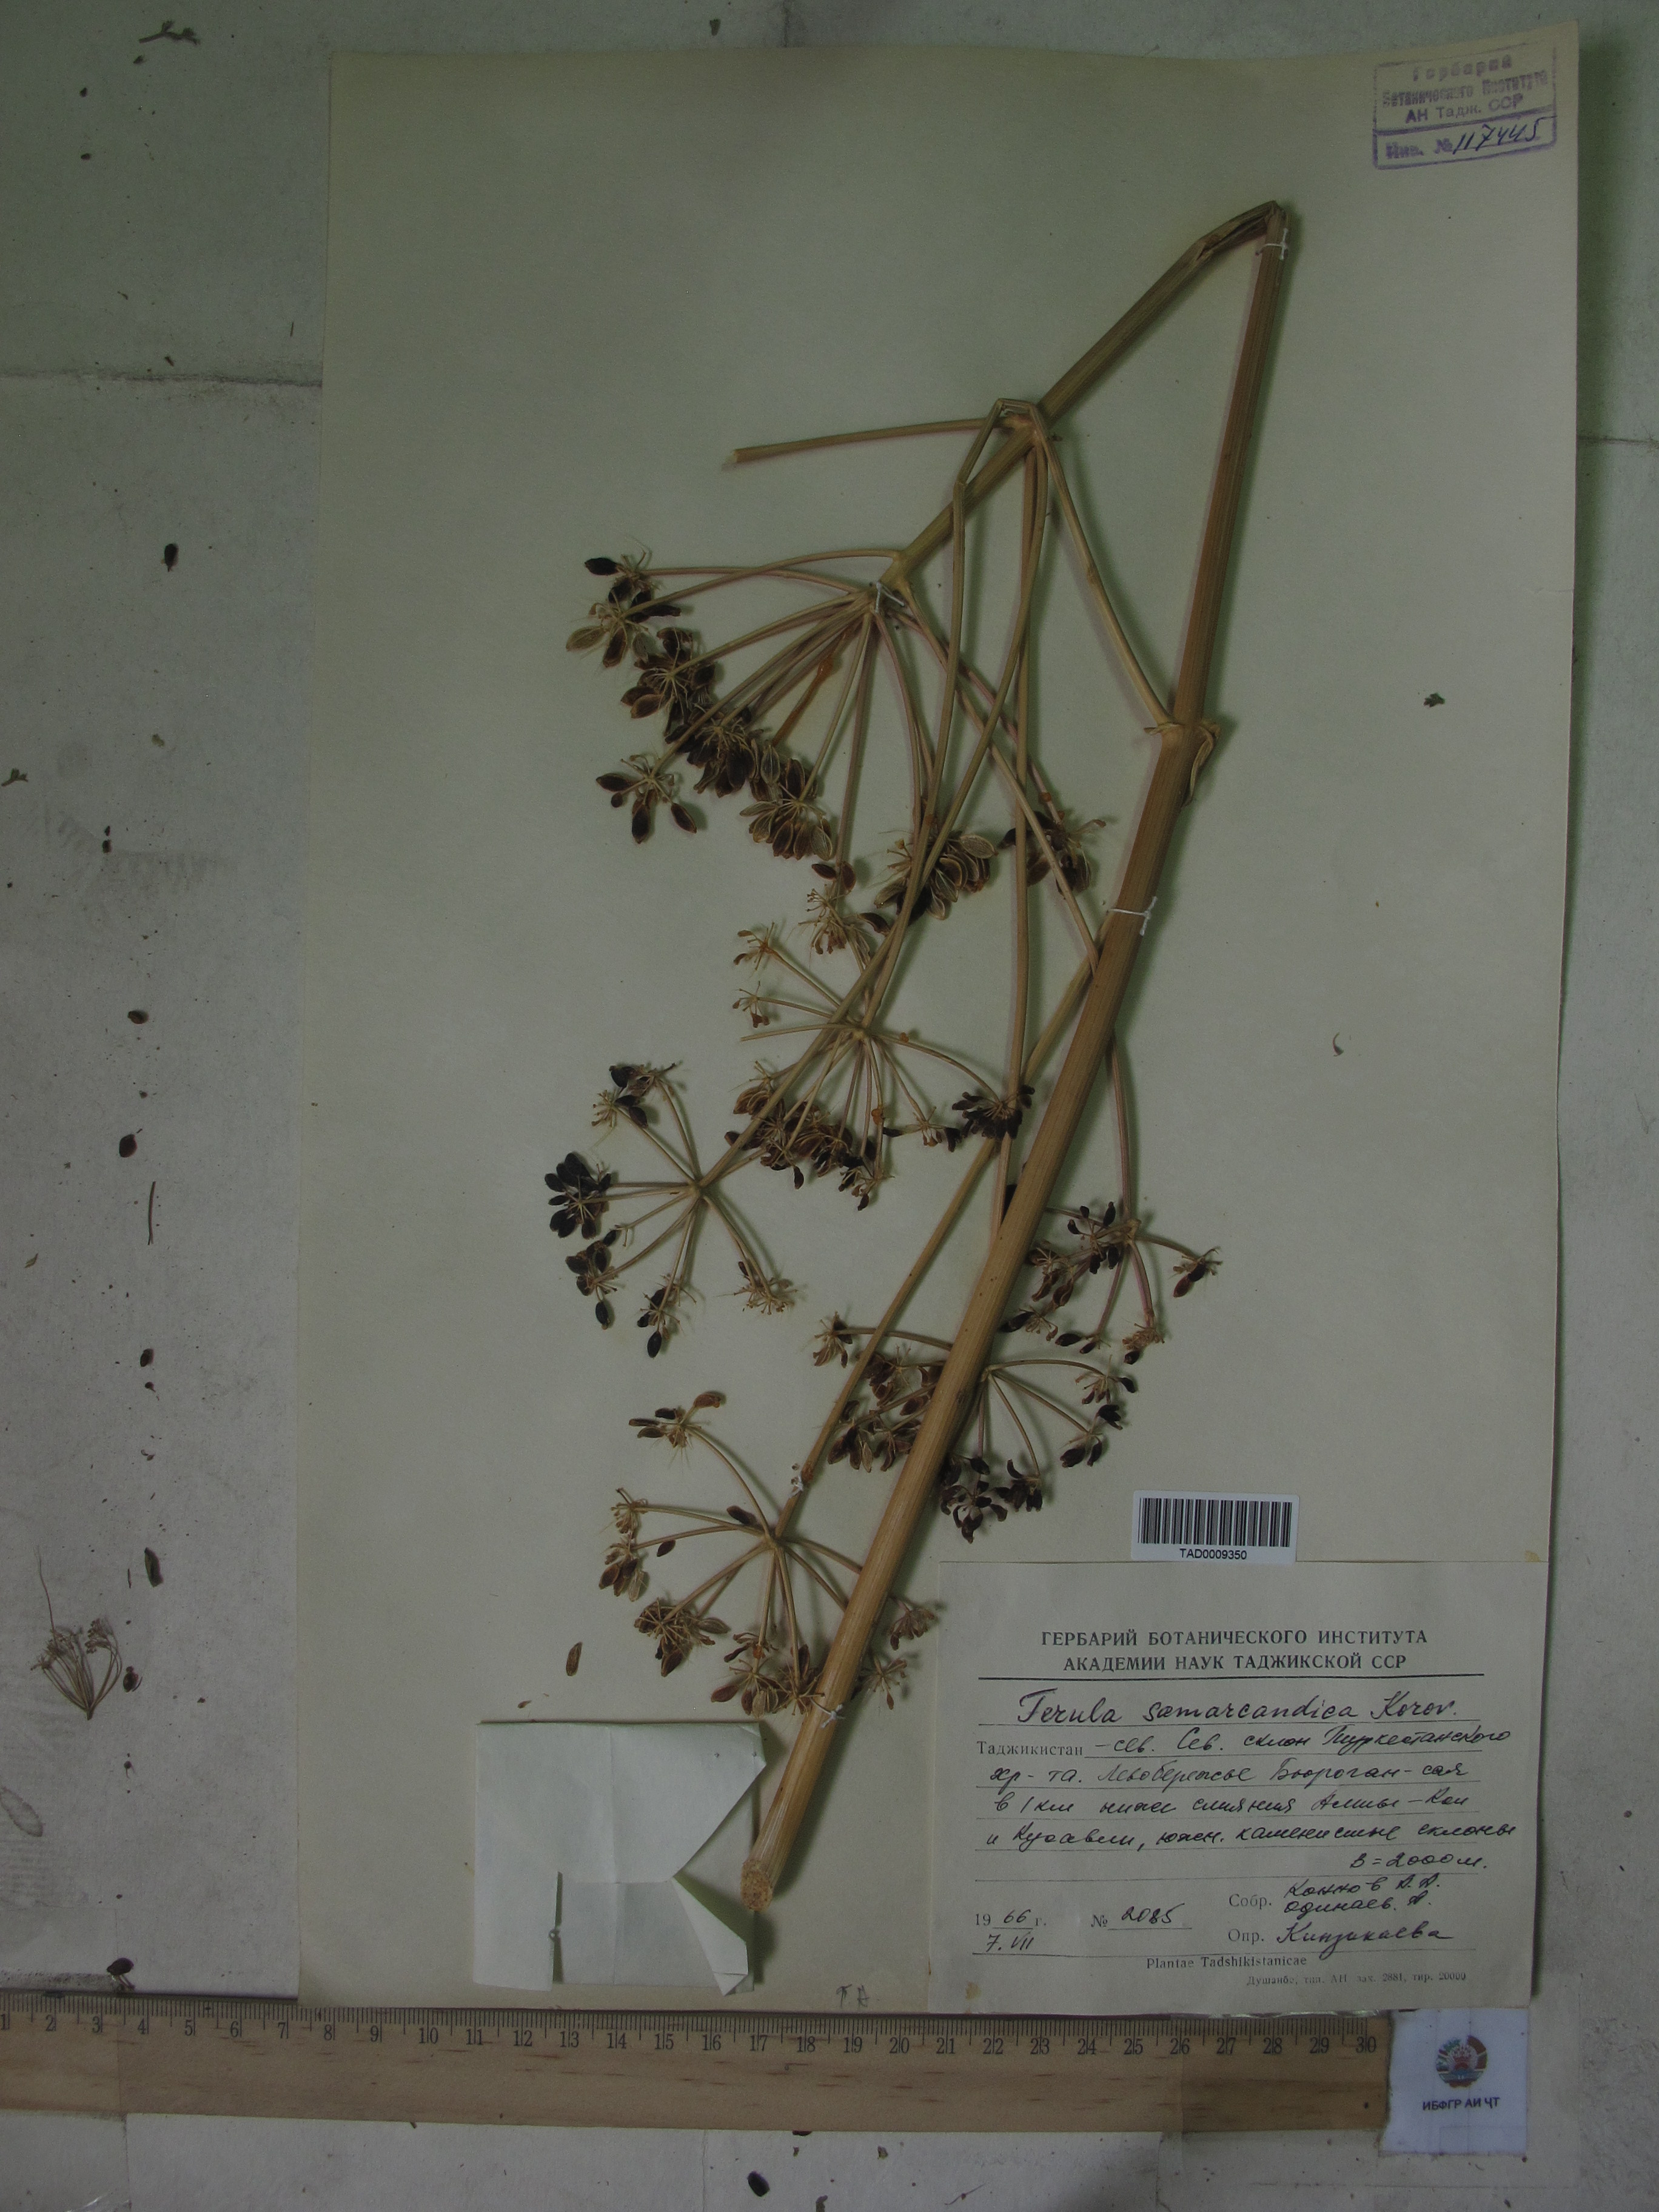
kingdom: Plantae
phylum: Tracheophyta
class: Magnoliopsida
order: Apiales
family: Apiaceae
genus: Ferula
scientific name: Ferula samarkandica
